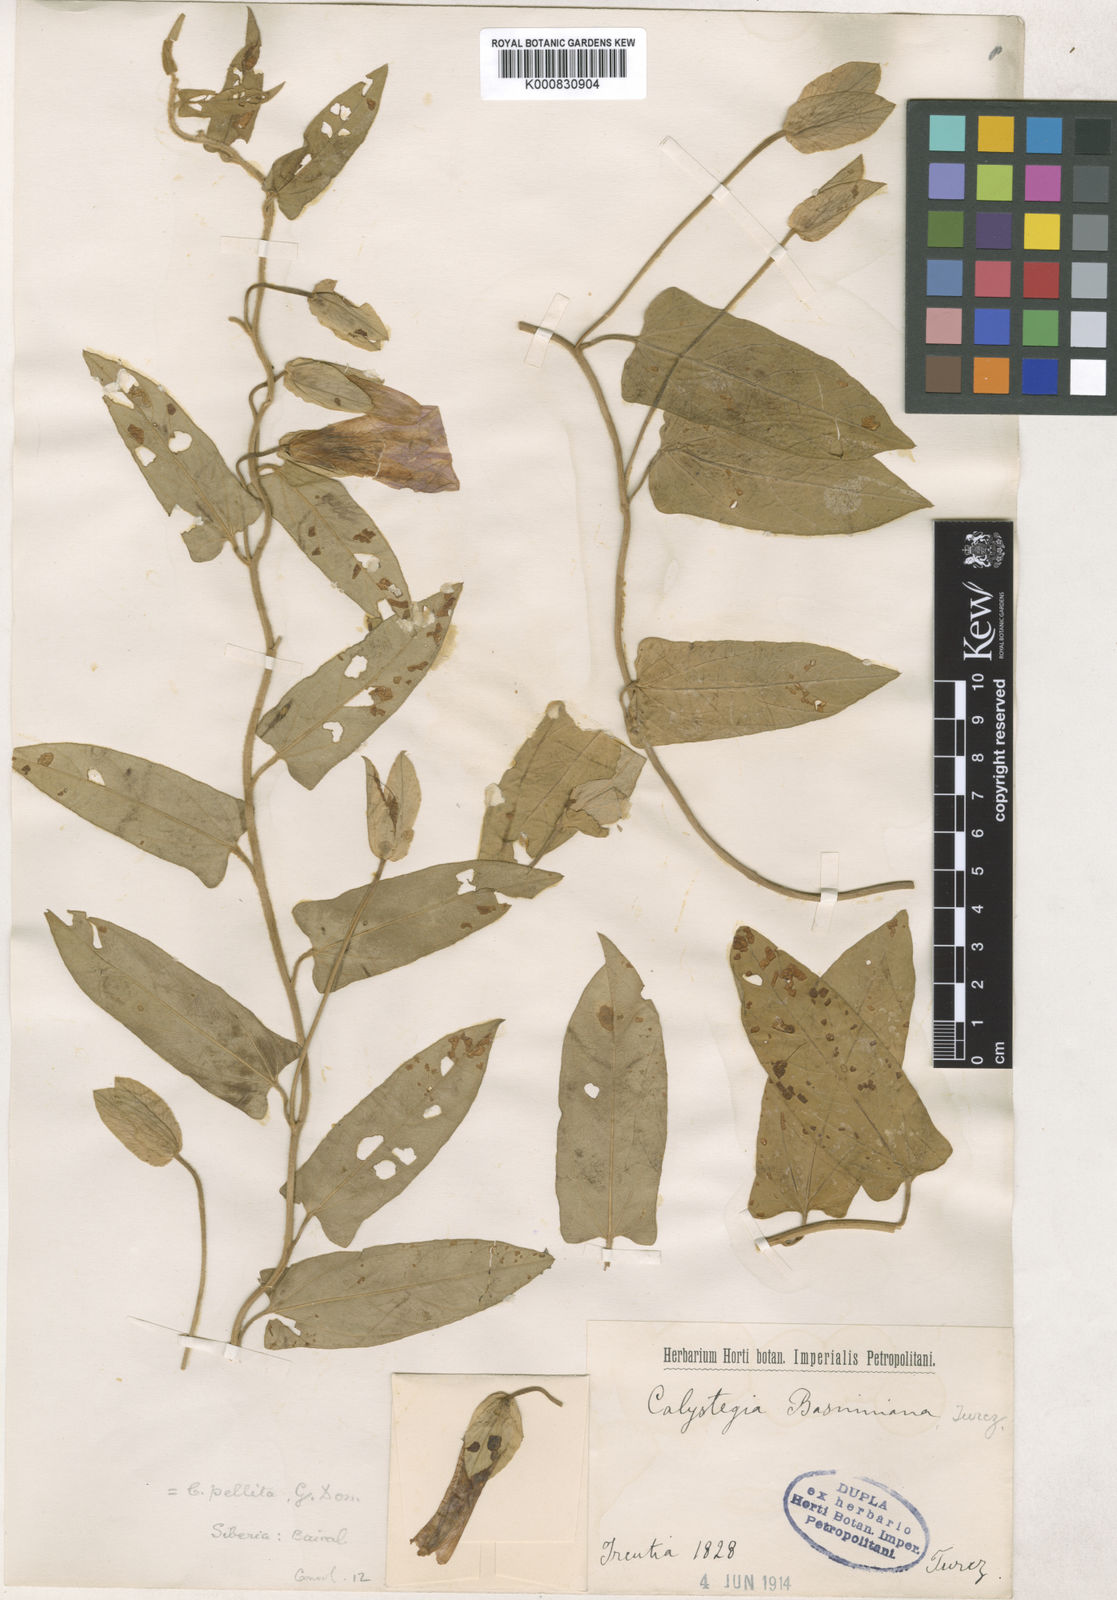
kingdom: Plantae
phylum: Tracheophyta
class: Magnoliopsida
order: Solanales
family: Convolvulaceae
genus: Calystegia
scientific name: Calystegia pellita
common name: Hairy bindweed
